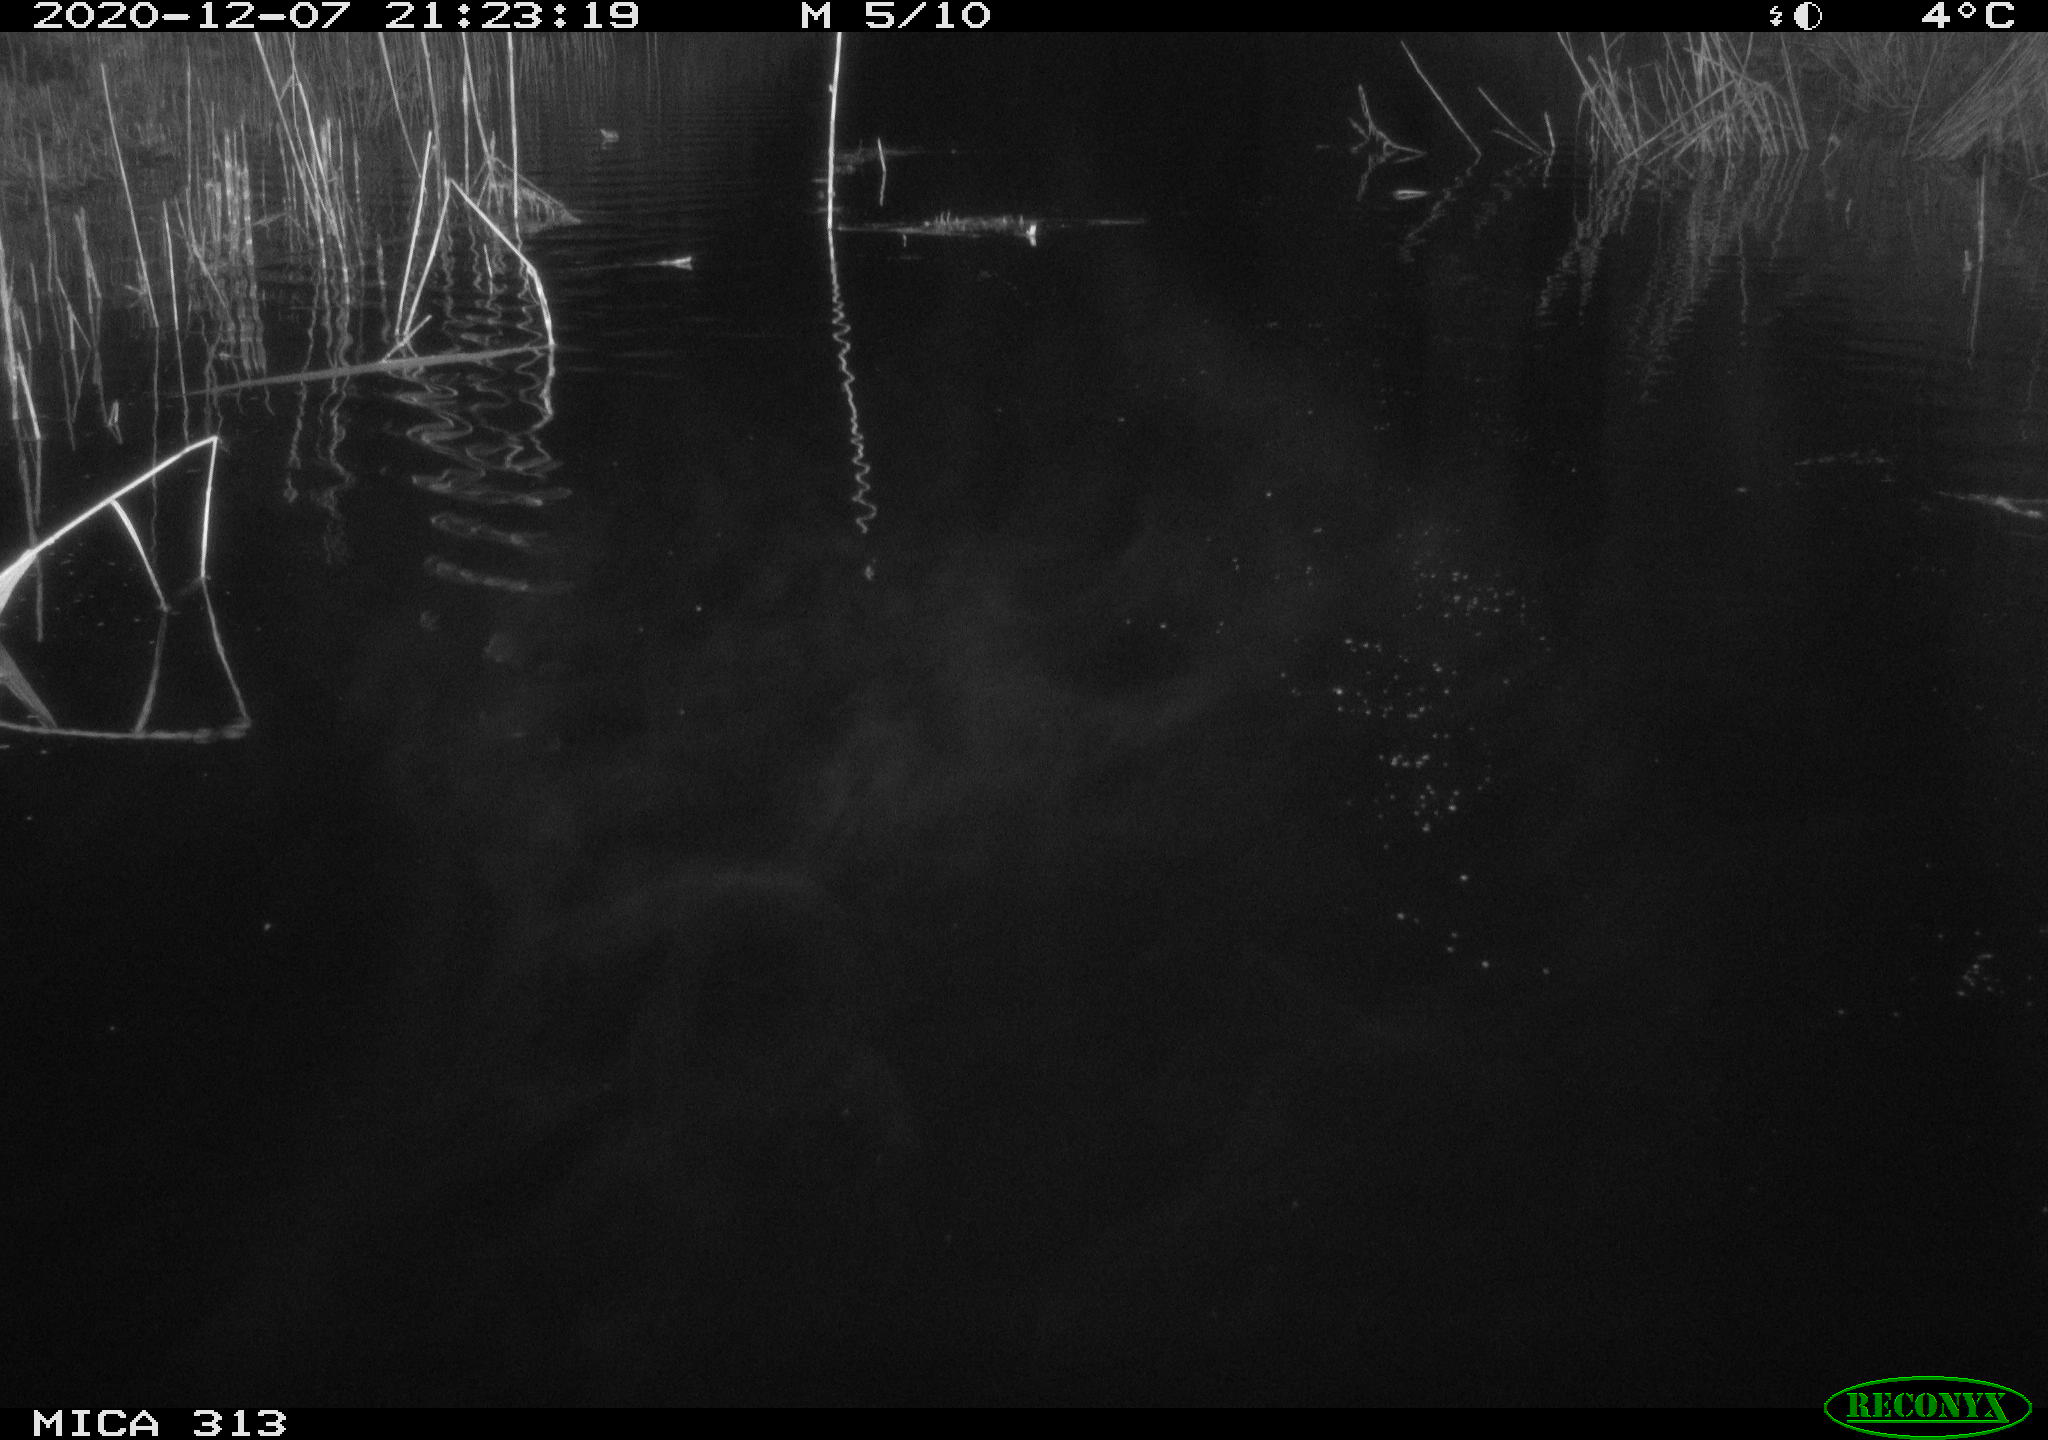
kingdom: Animalia
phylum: Chordata
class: Mammalia
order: Rodentia
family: Muridae
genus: Rattus
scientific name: Rattus norvegicus
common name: Brown rat
